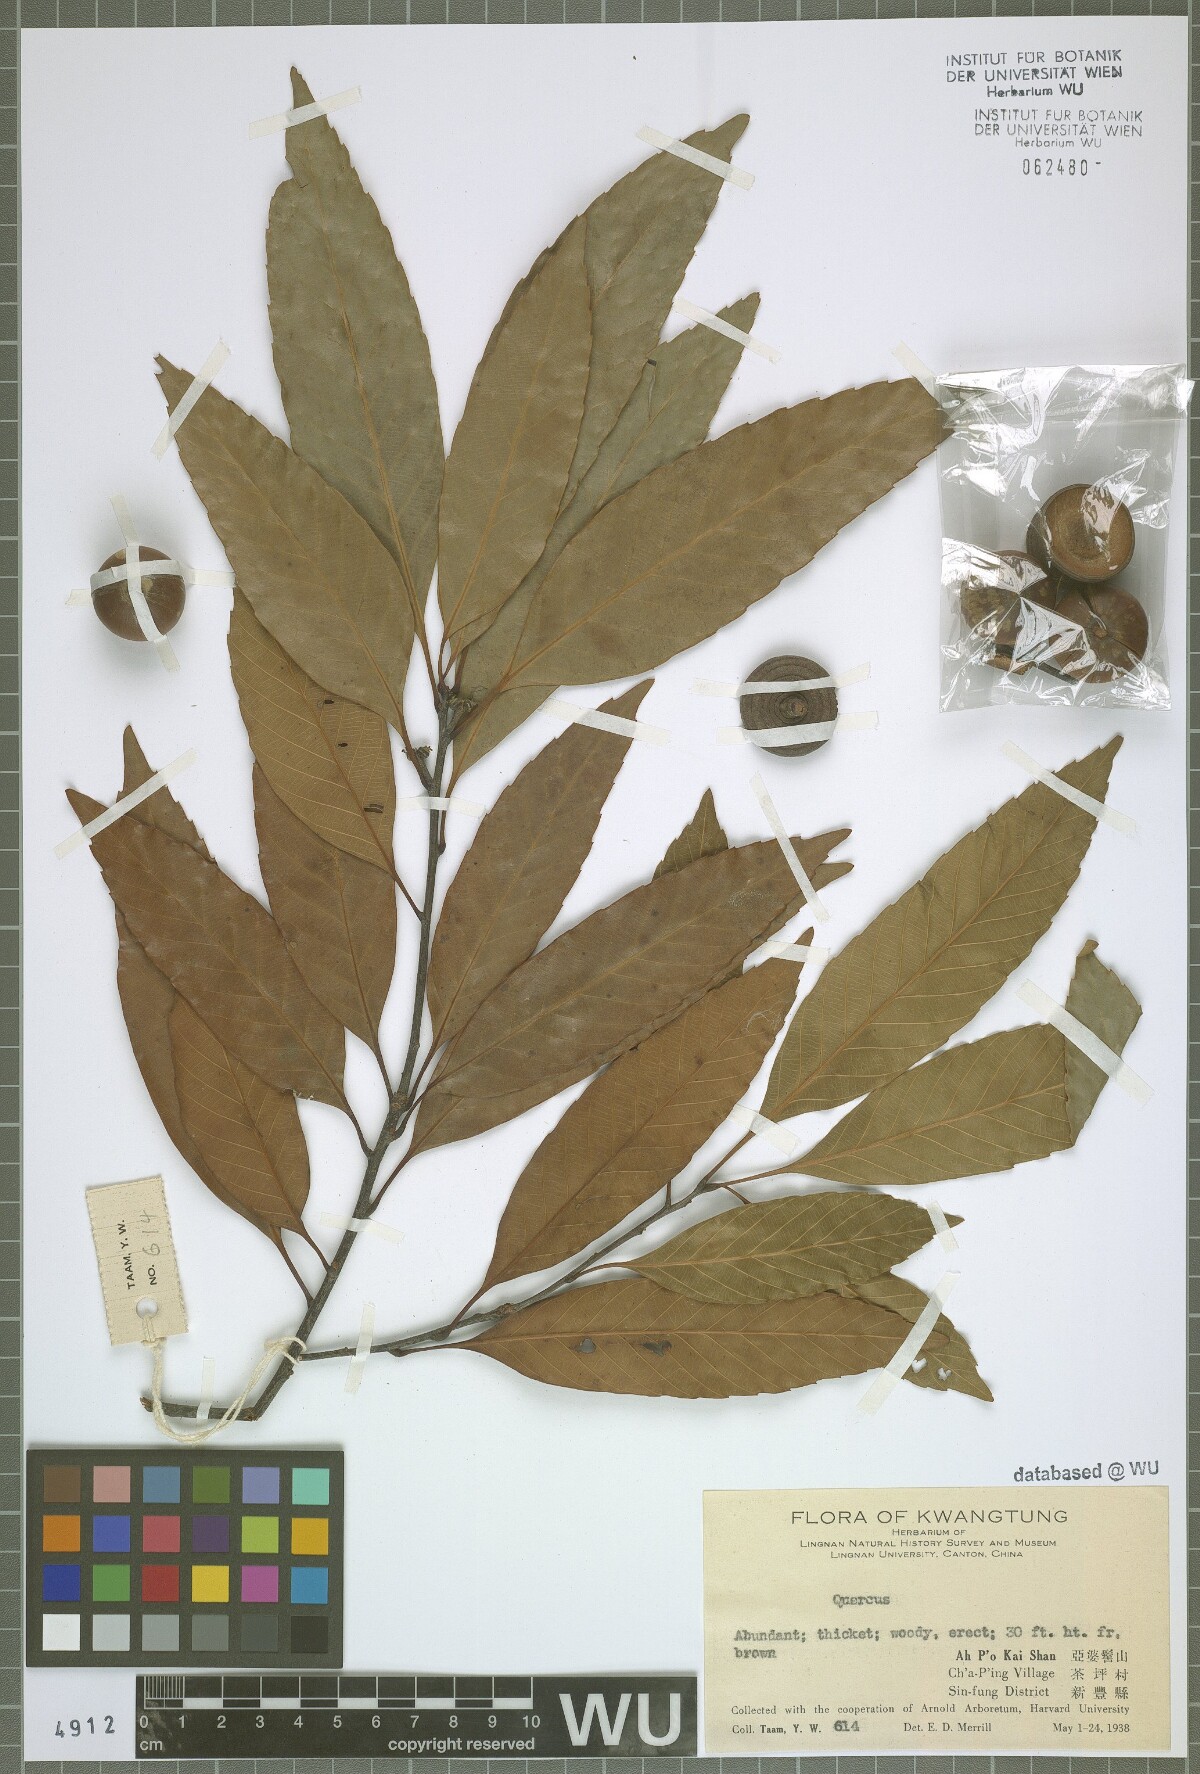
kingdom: Plantae
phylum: Tracheophyta
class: Magnoliopsida
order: Fagales
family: Fagaceae
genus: Quercus
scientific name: Quercus
